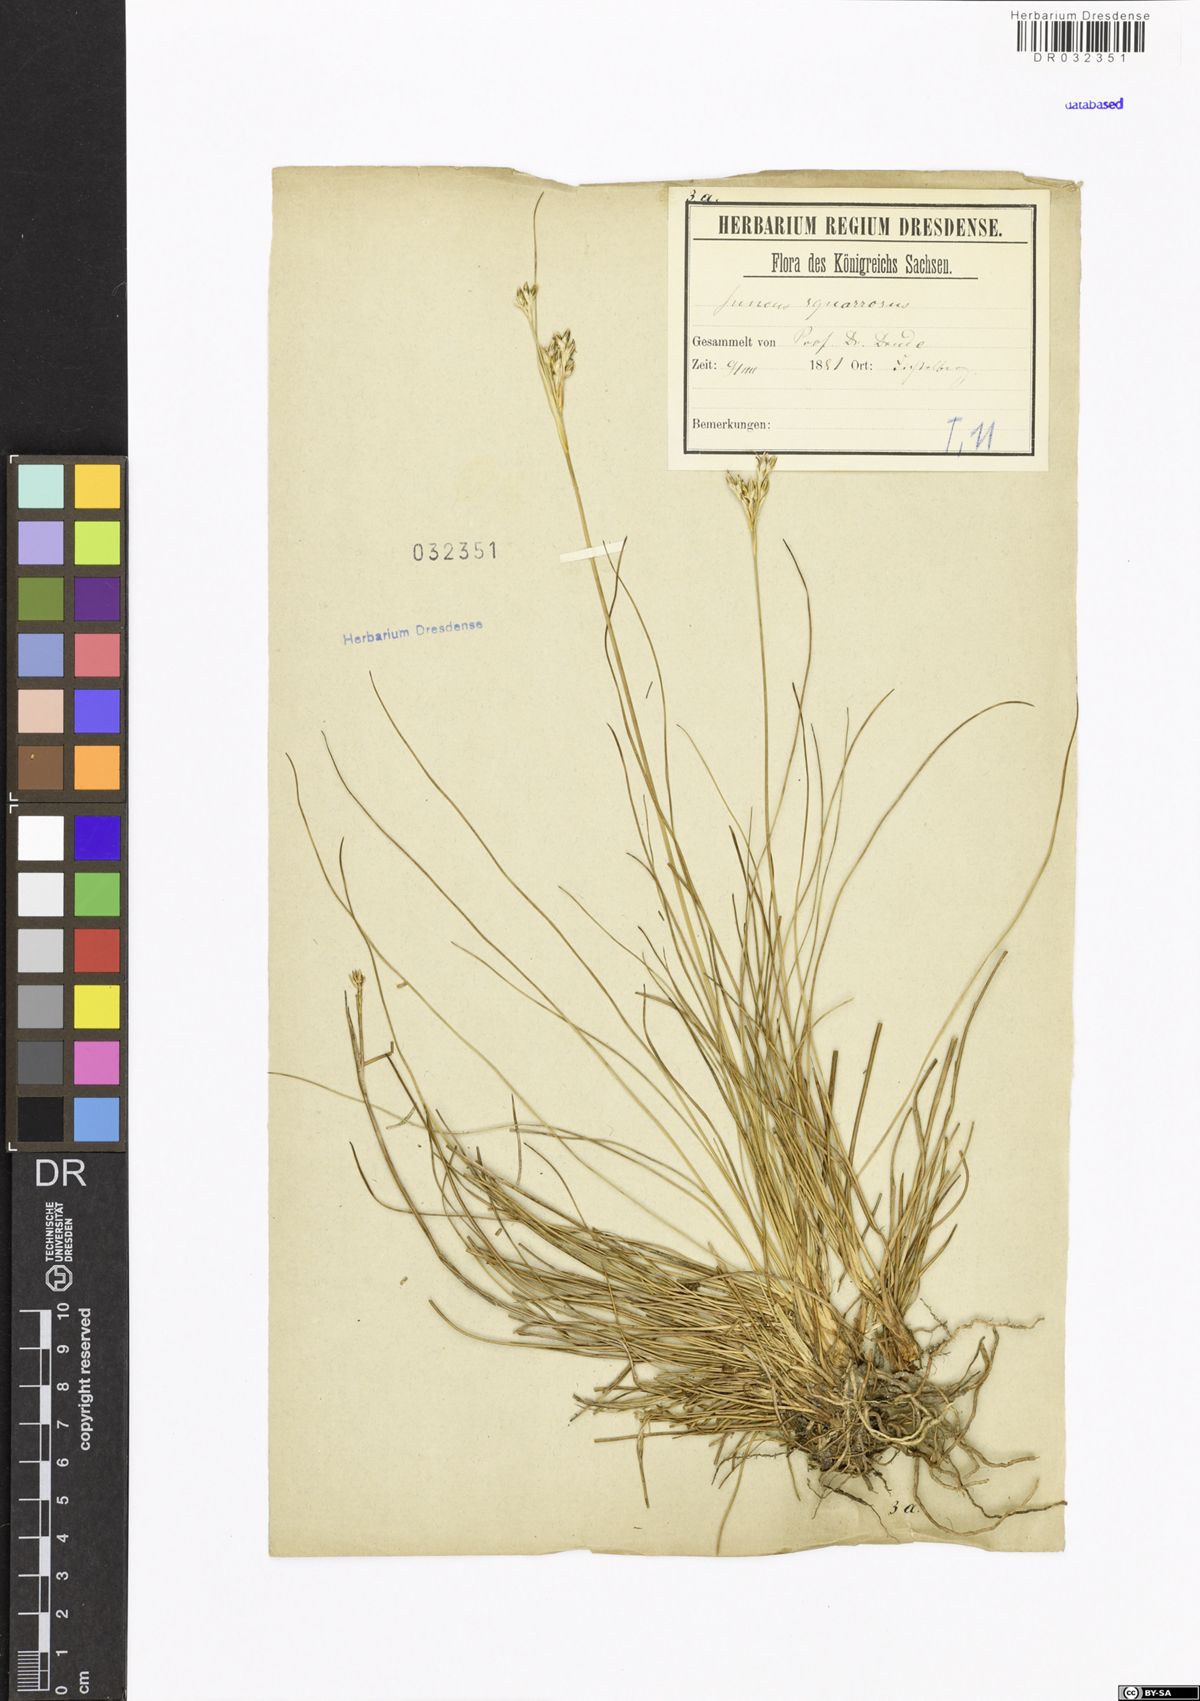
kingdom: Plantae
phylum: Tracheophyta
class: Liliopsida
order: Poales
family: Juncaceae
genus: Juncus
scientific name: Juncus squarrosus
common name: Heath rush
